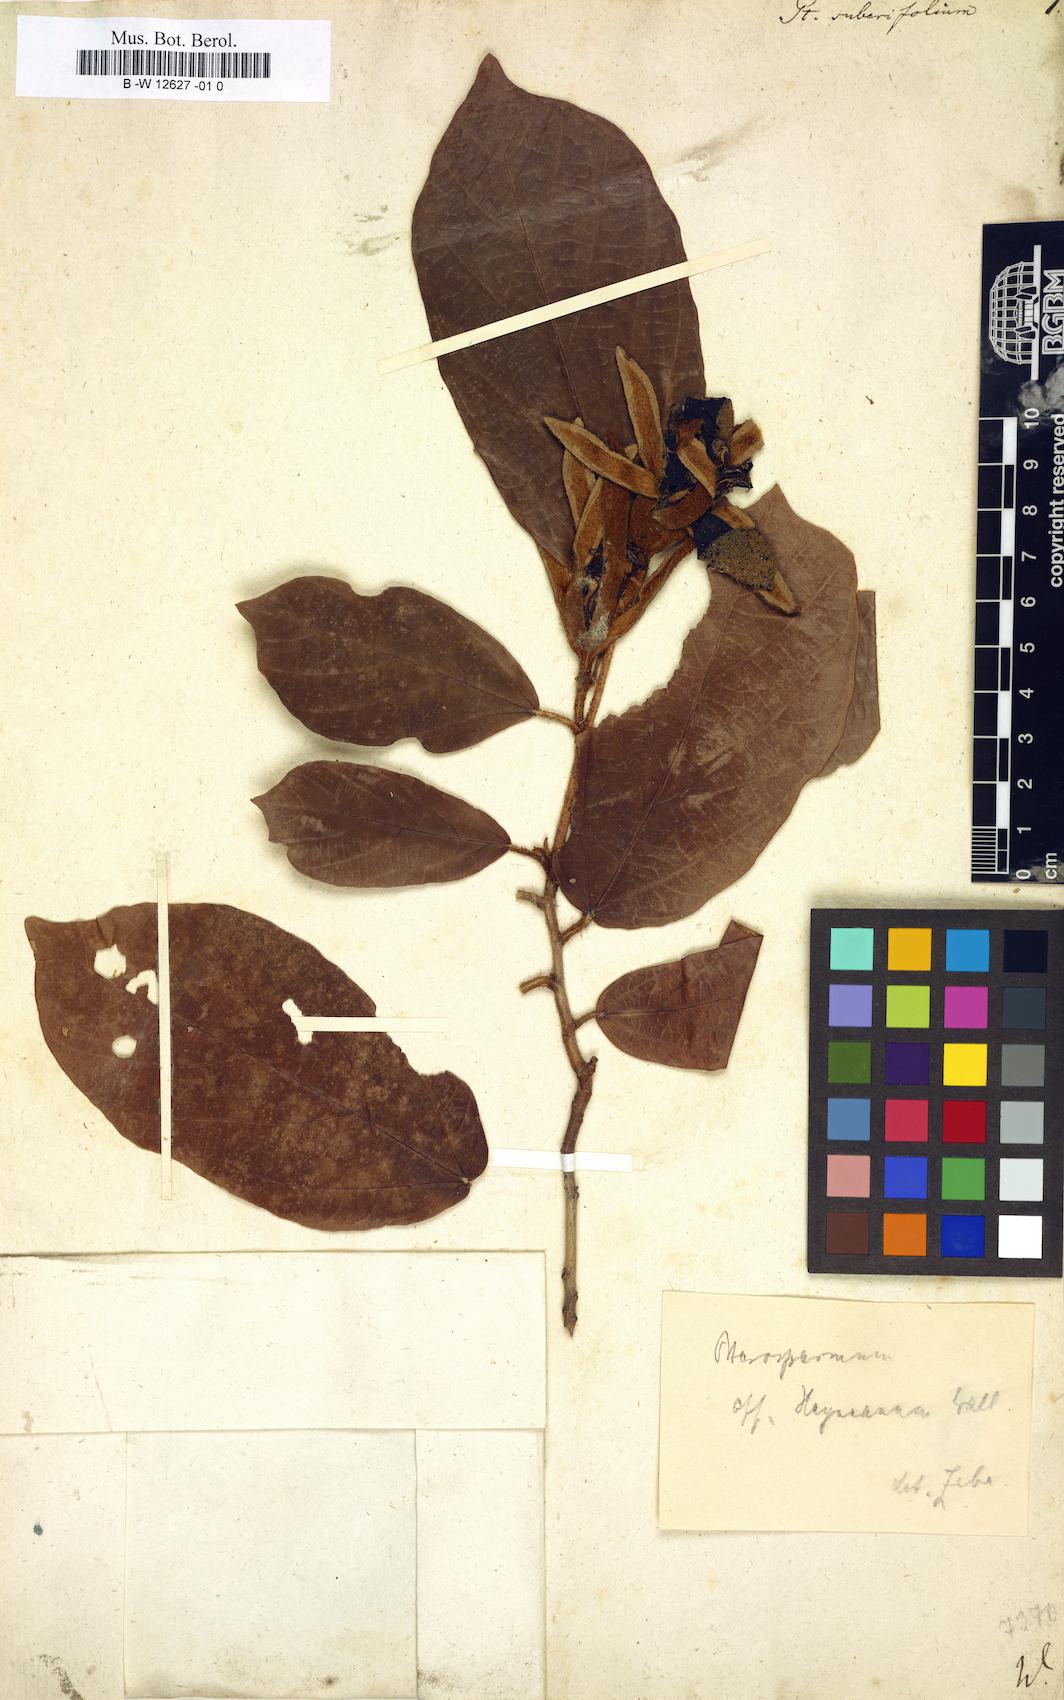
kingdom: Plantae
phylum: Tracheophyta
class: Magnoliopsida
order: Malvales
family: Malvaceae
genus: Pterospermum
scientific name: Pterospermum suberifolium
